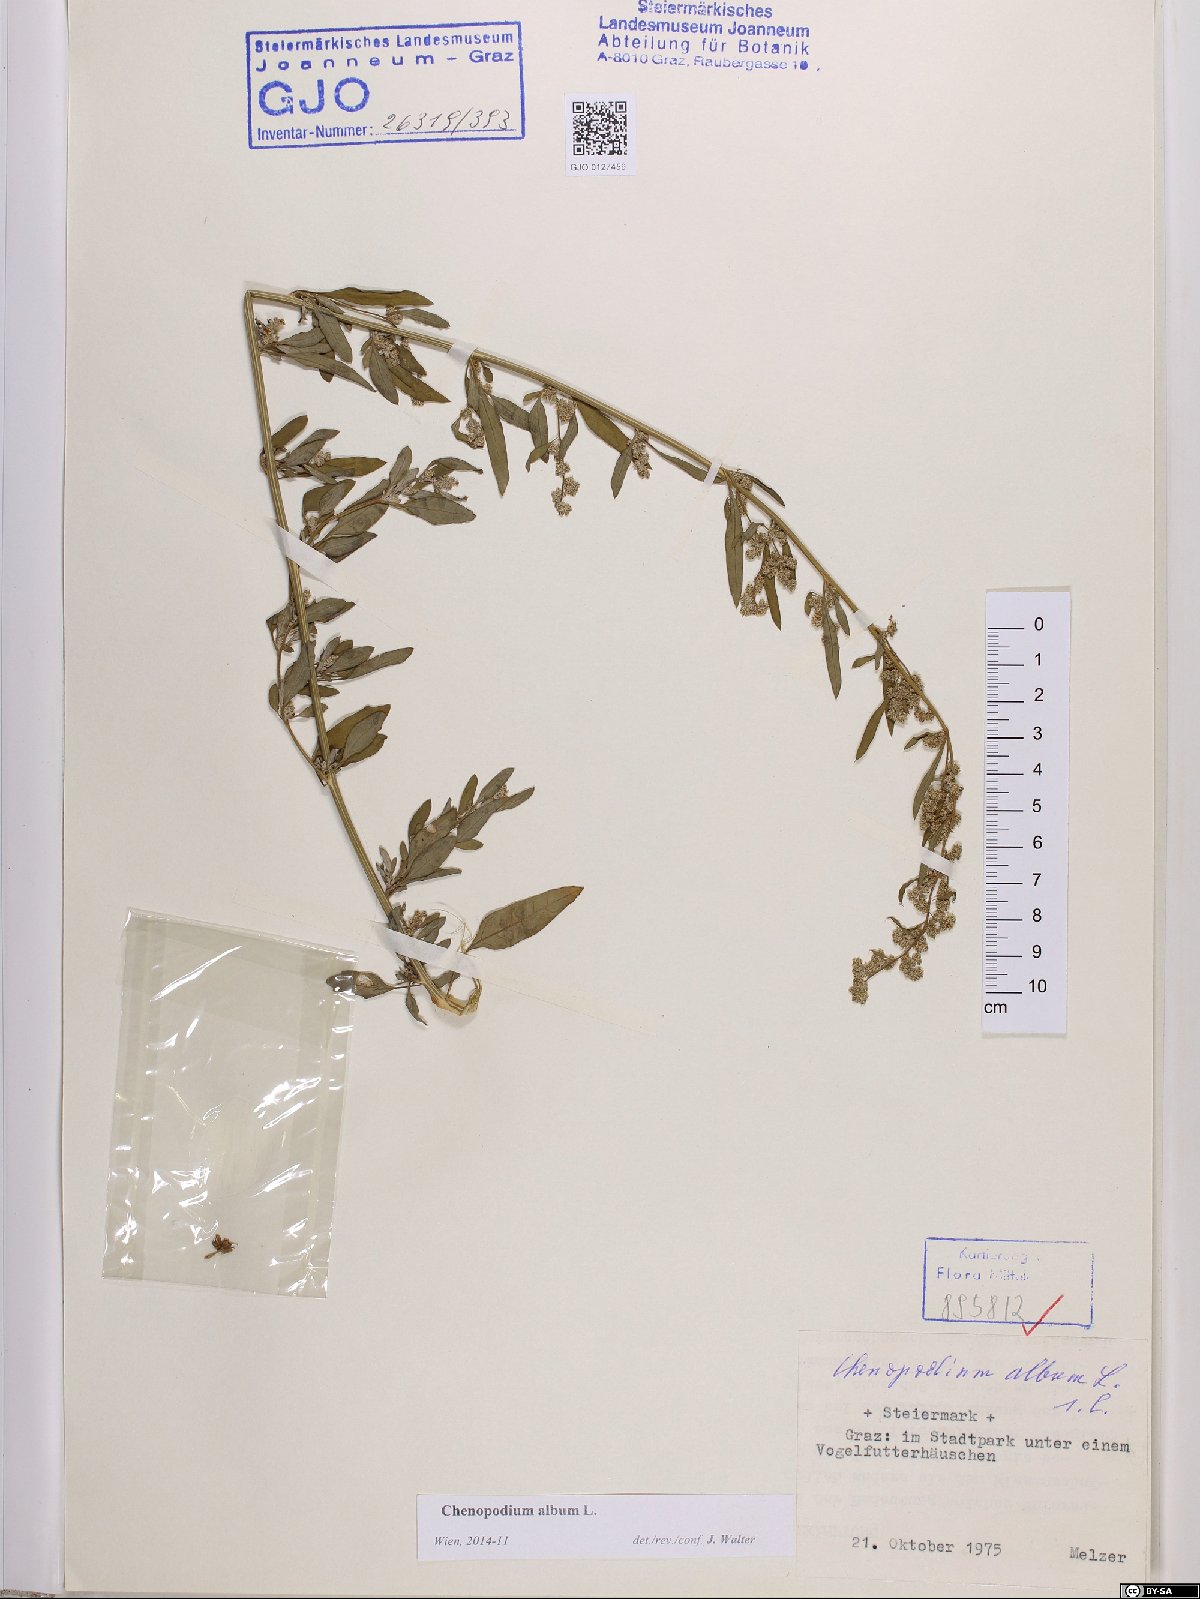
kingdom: Plantae
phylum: Tracheophyta
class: Magnoliopsida
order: Caryophyllales
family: Amaranthaceae
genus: Chenopodium
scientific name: Chenopodium album
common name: Fat-hen
